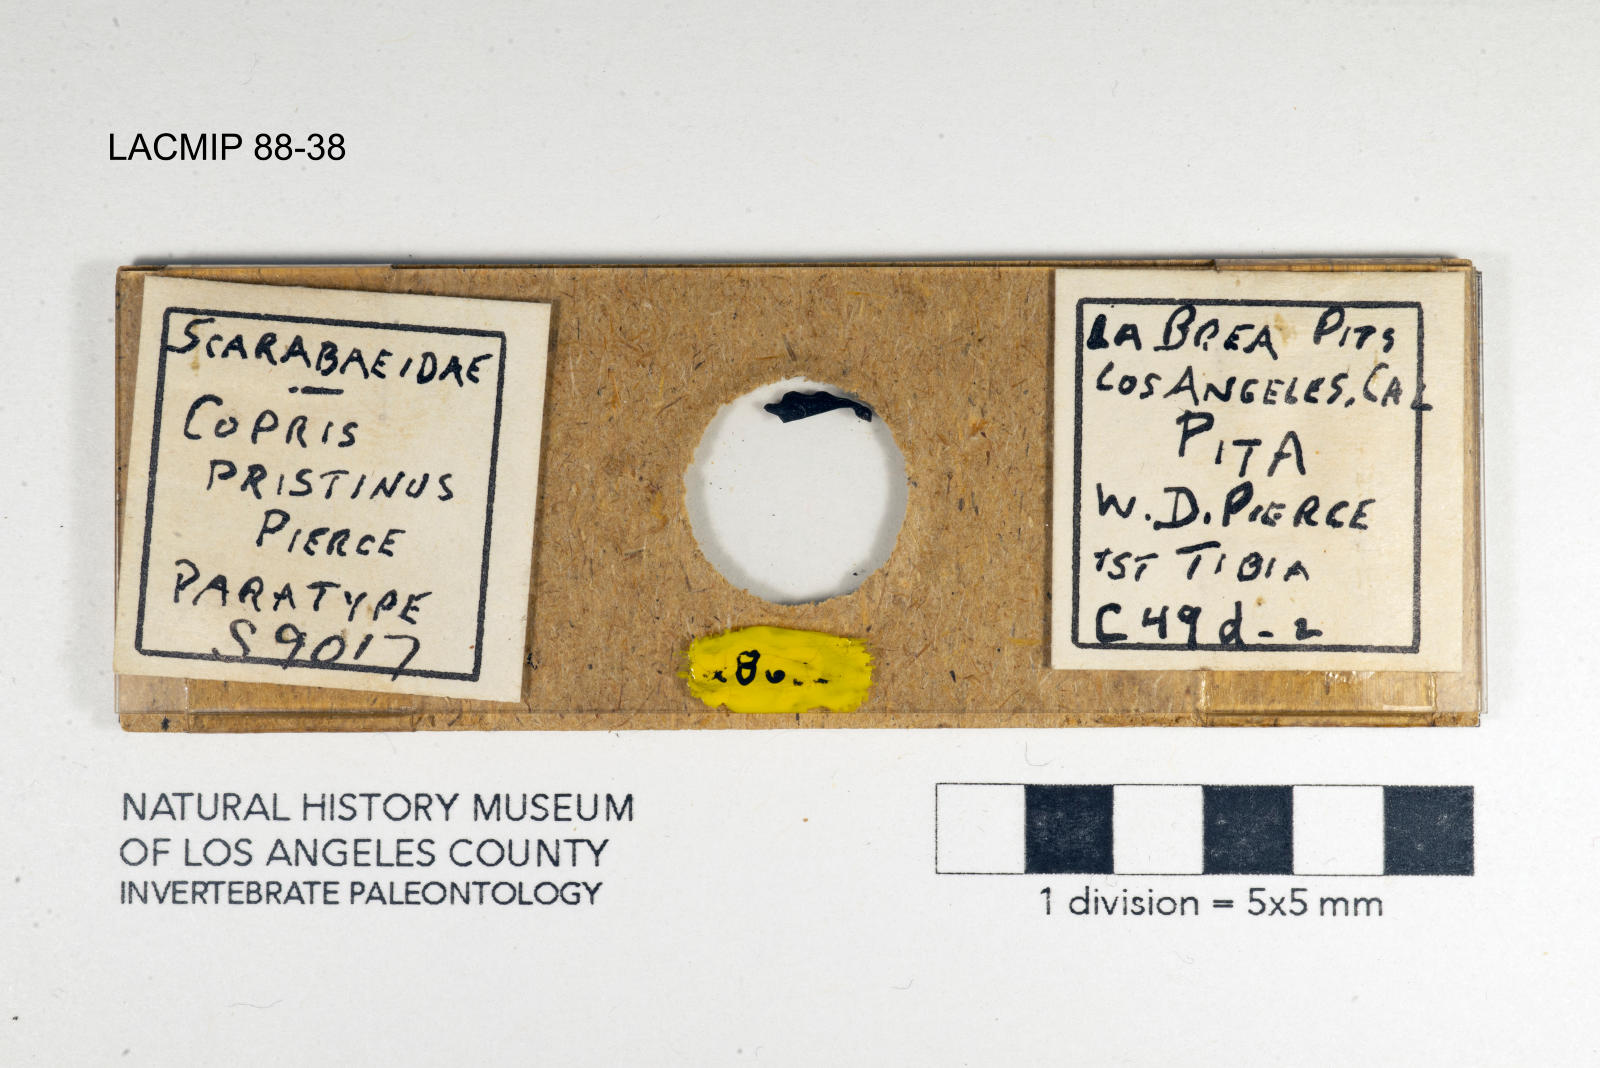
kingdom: Animalia
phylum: Arthropoda
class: Insecta
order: Coleoptera
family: Scarabaeidae
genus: Copris
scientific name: Copris pristinus
